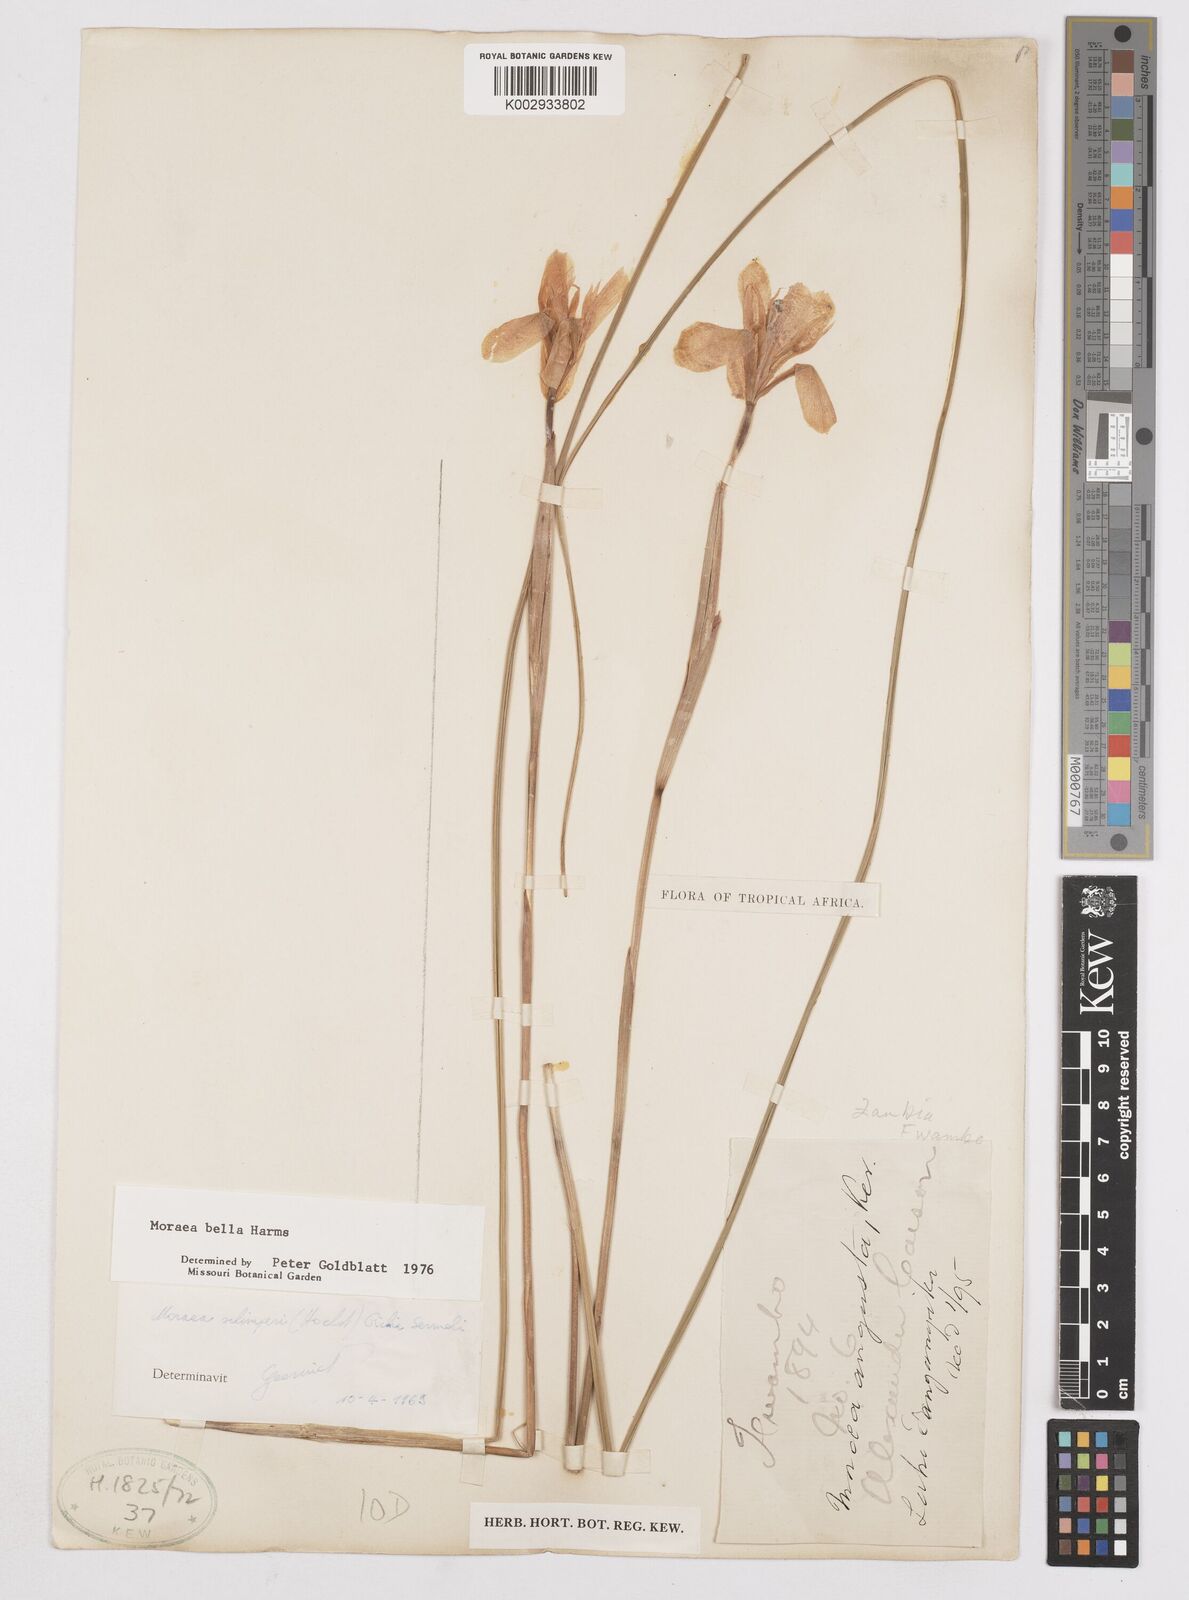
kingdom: Plantae
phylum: Tracheophyta
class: Liliopsida
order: Asparagales
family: Iridaceae
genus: Moraea
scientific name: Moraea bella
